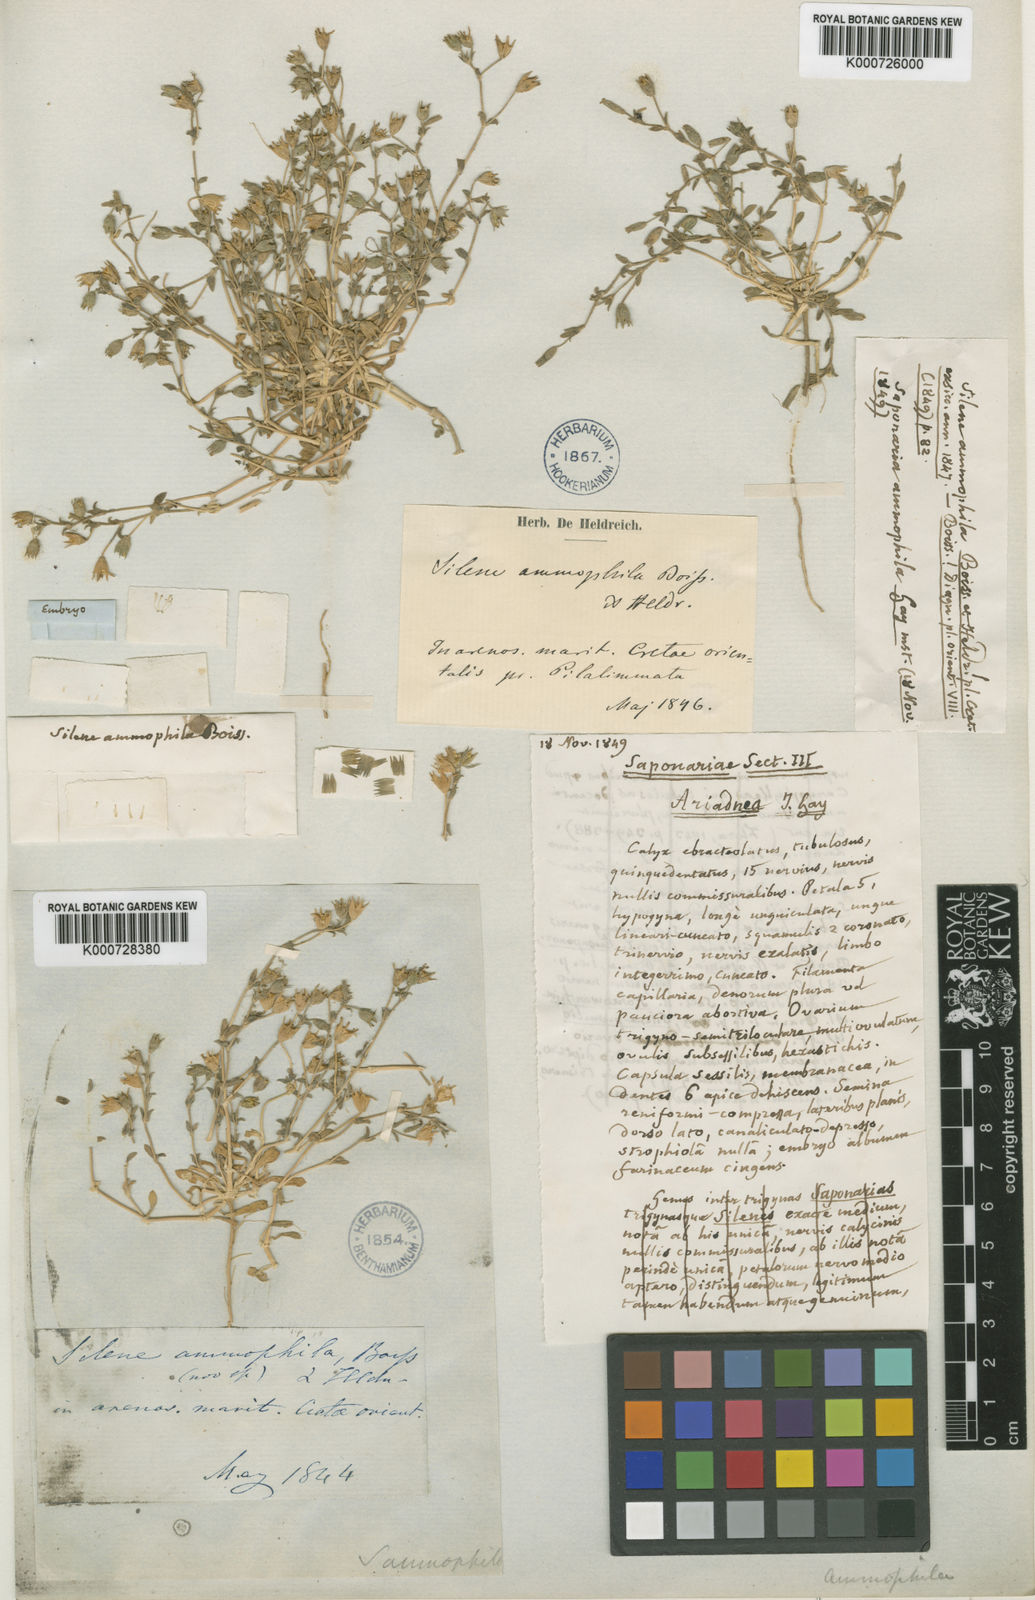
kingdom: Plantae
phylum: Tracheophyta
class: Magnoliopsida
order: Caryophyllales
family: Caryophyllaceae
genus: Silene
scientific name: Silene ammophila
